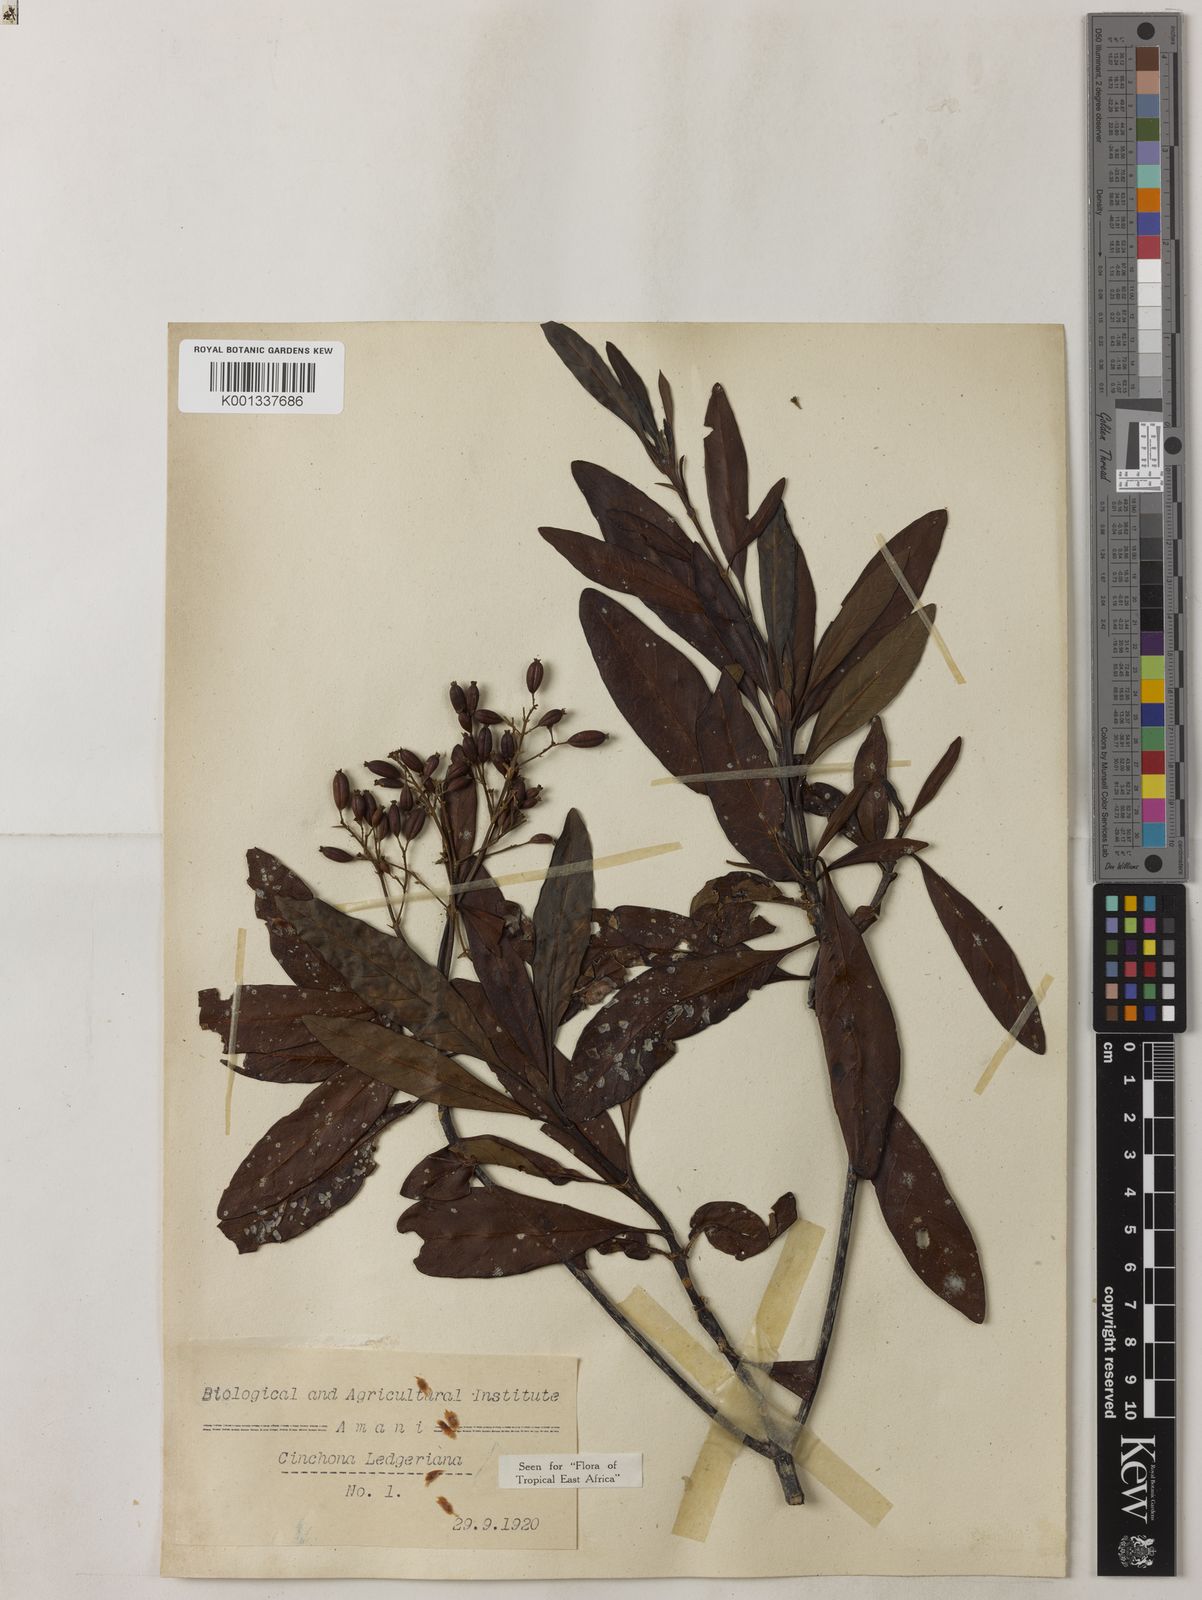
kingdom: Plantae
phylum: Tracheophyta
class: Magnoliopsida
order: Gentianales
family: Rubiaceae
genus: Cinchona
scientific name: Cinchona calisaya
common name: Ledgerbark
